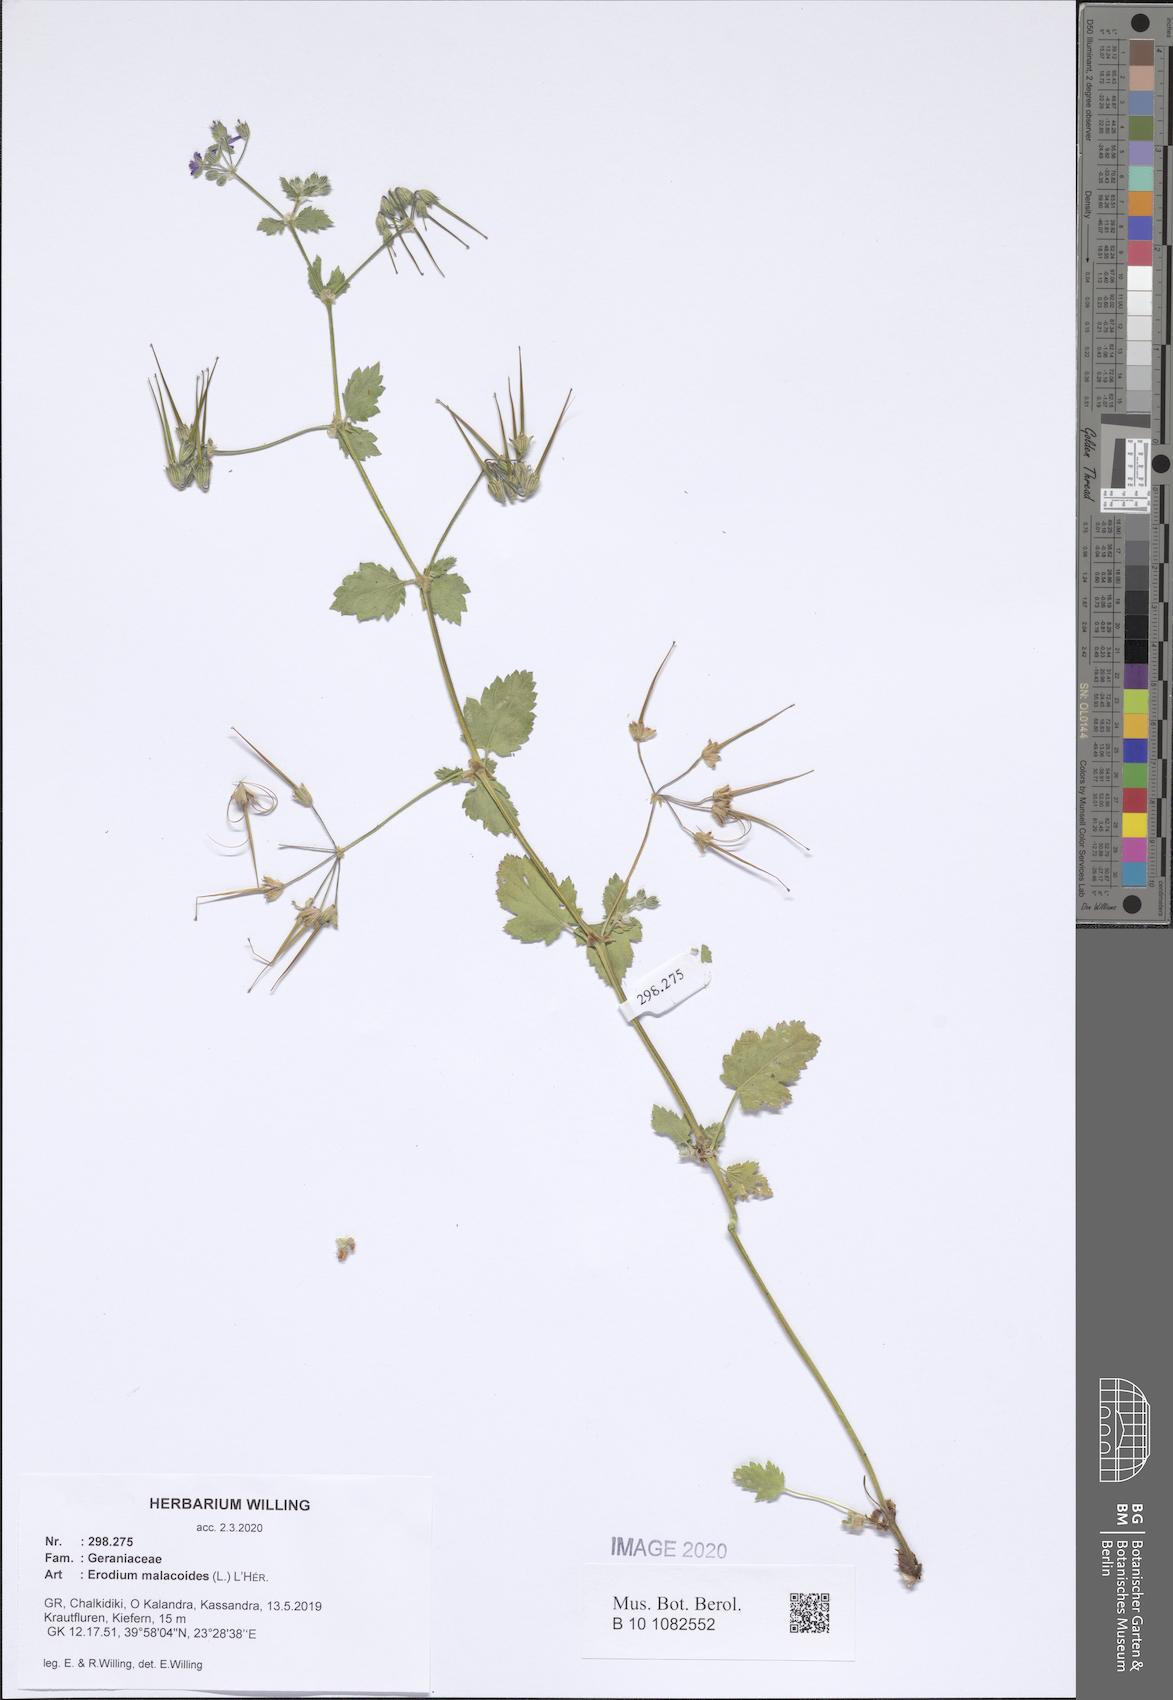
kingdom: Plantae
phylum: Tracheophyta
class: Magnoliopsida
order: Geraniales
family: Geraniaceae
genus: Erodium
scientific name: Erodium malacoides
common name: Soft stork's-bill
